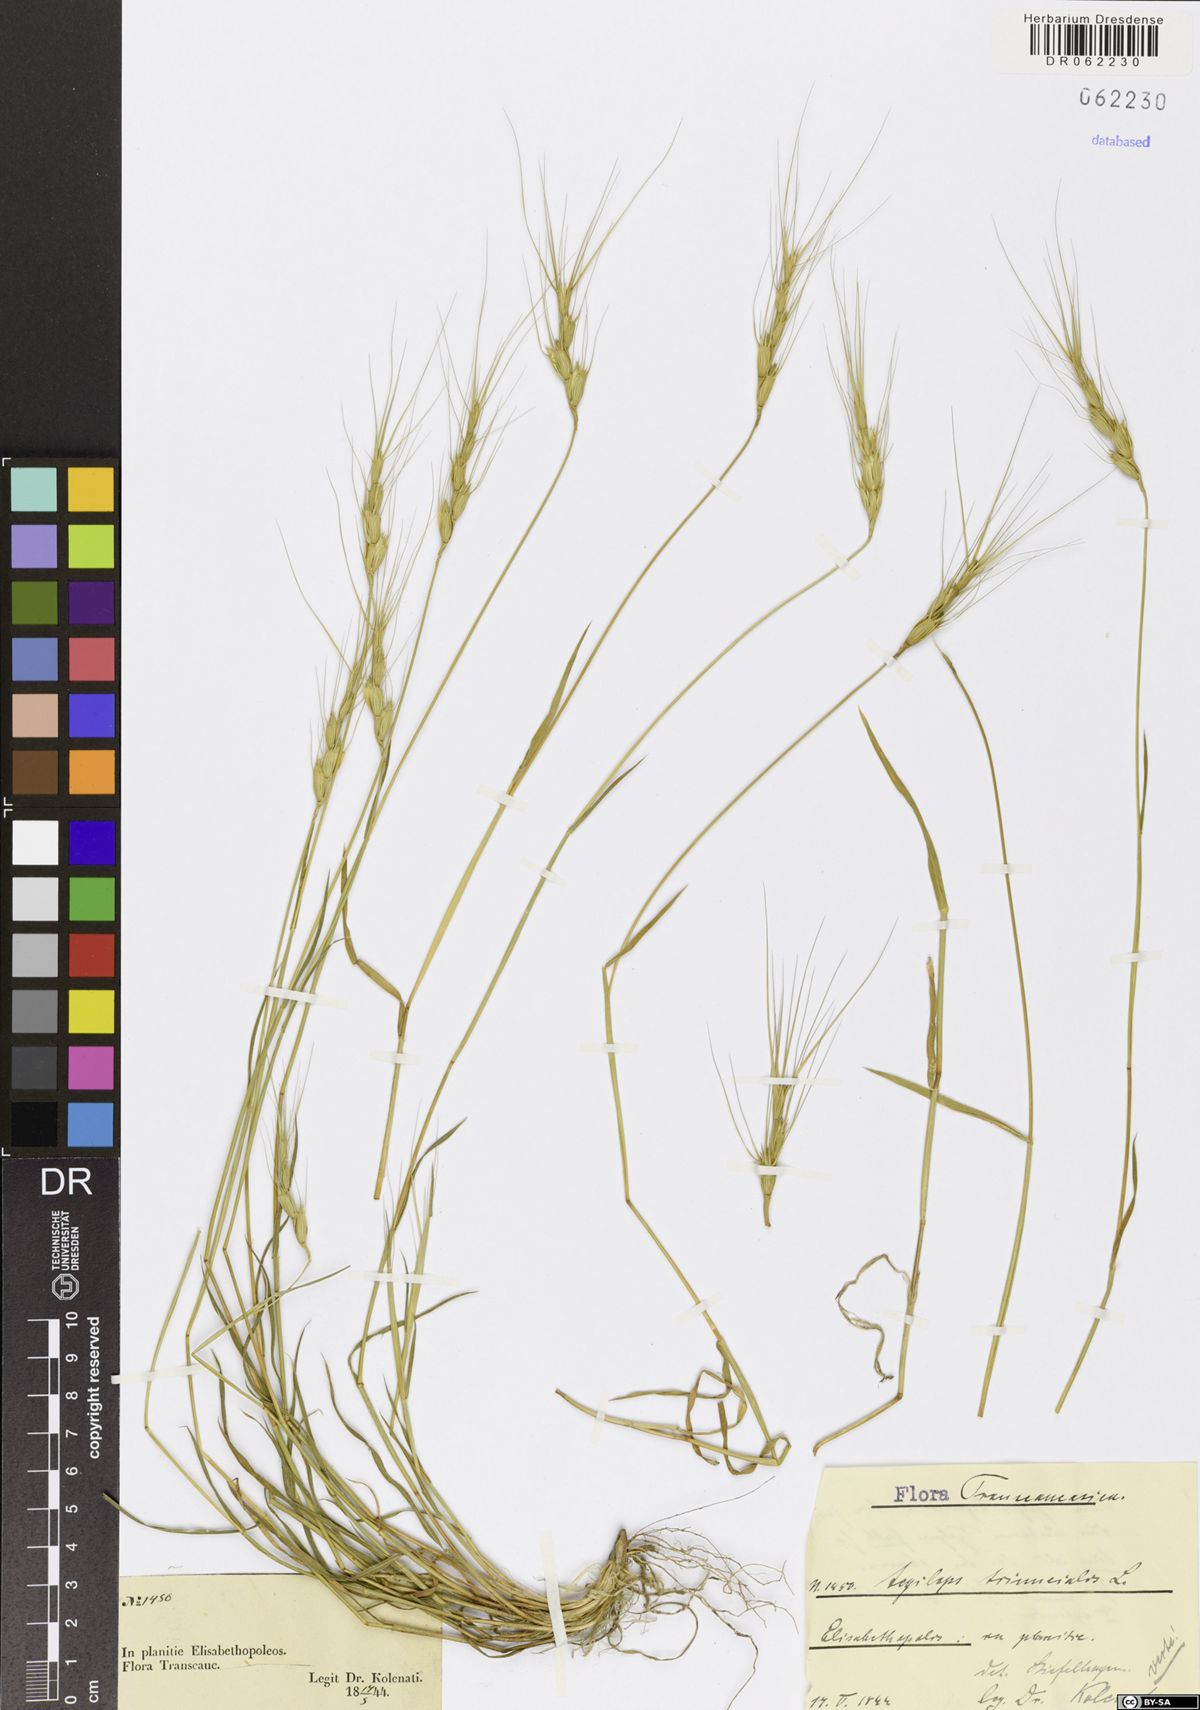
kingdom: Plantae
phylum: Tracheophyta
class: Liliopsida
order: Poales
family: Poaceae
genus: Aegilops
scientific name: Aegilops triuncialis
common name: Barb goat grass
